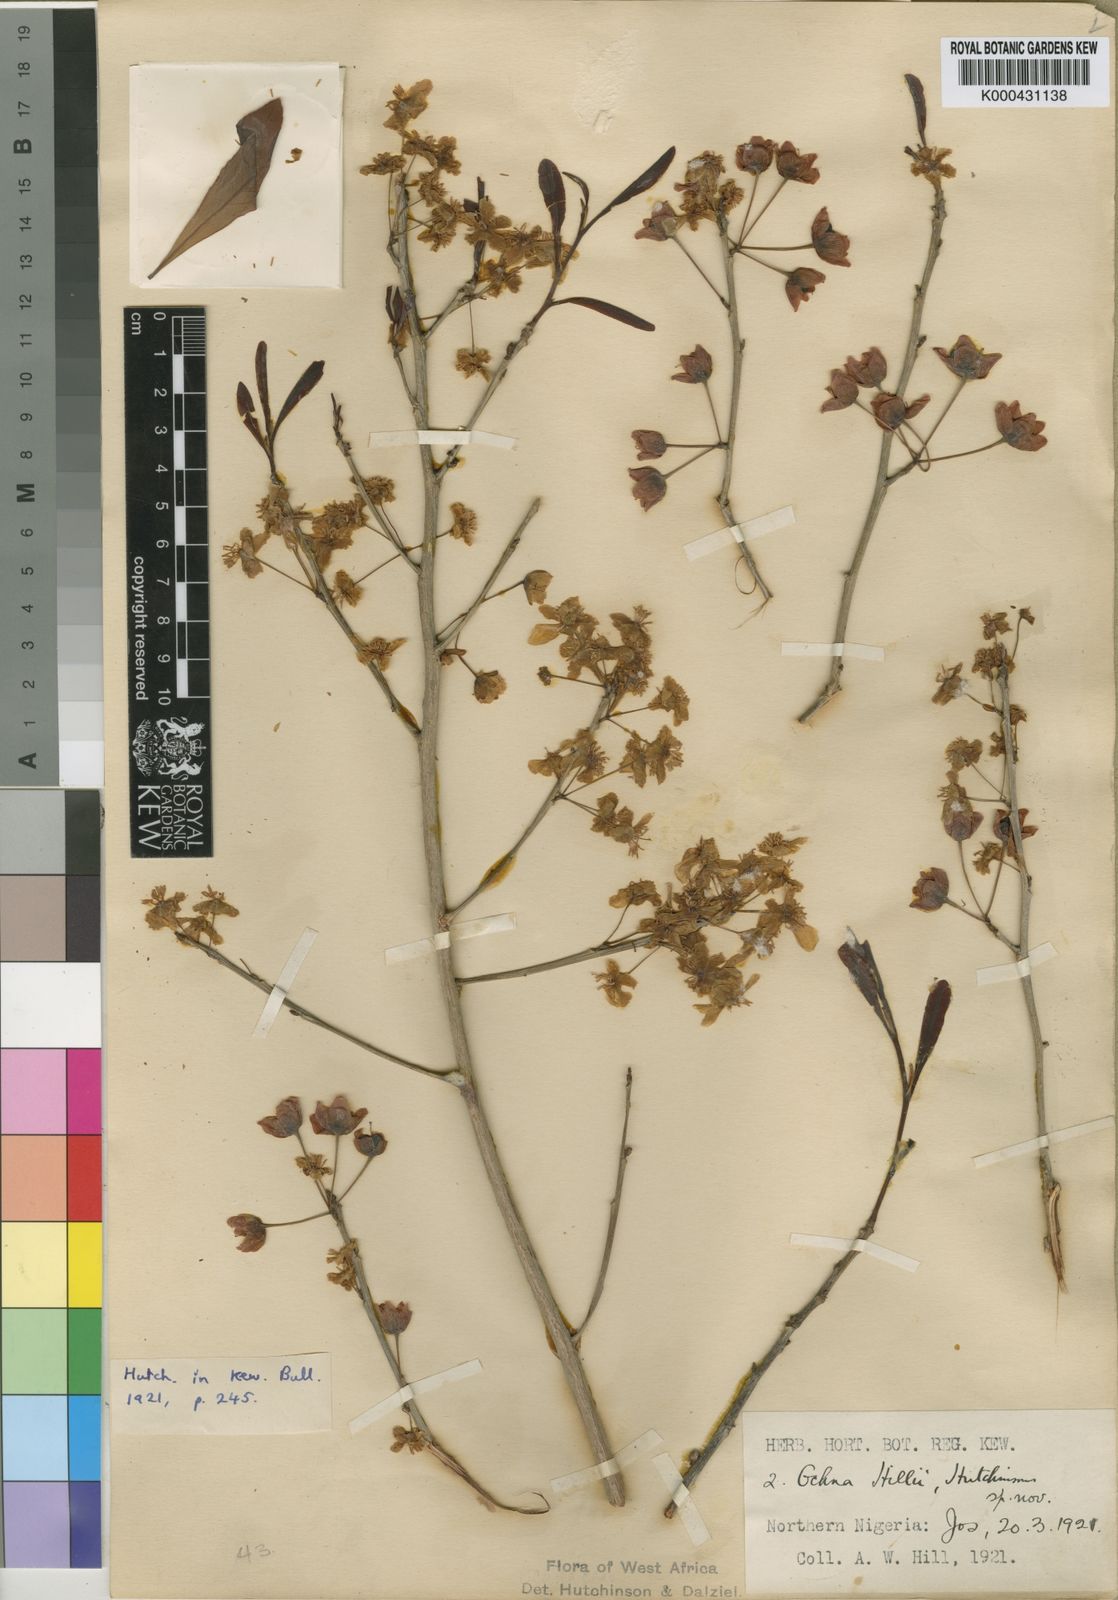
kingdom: Plantae
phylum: Tracheophyta
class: Magnoliopsida
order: Malpighiales
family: Ochnaceae
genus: Ochna
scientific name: Ochna rhizomatosa
